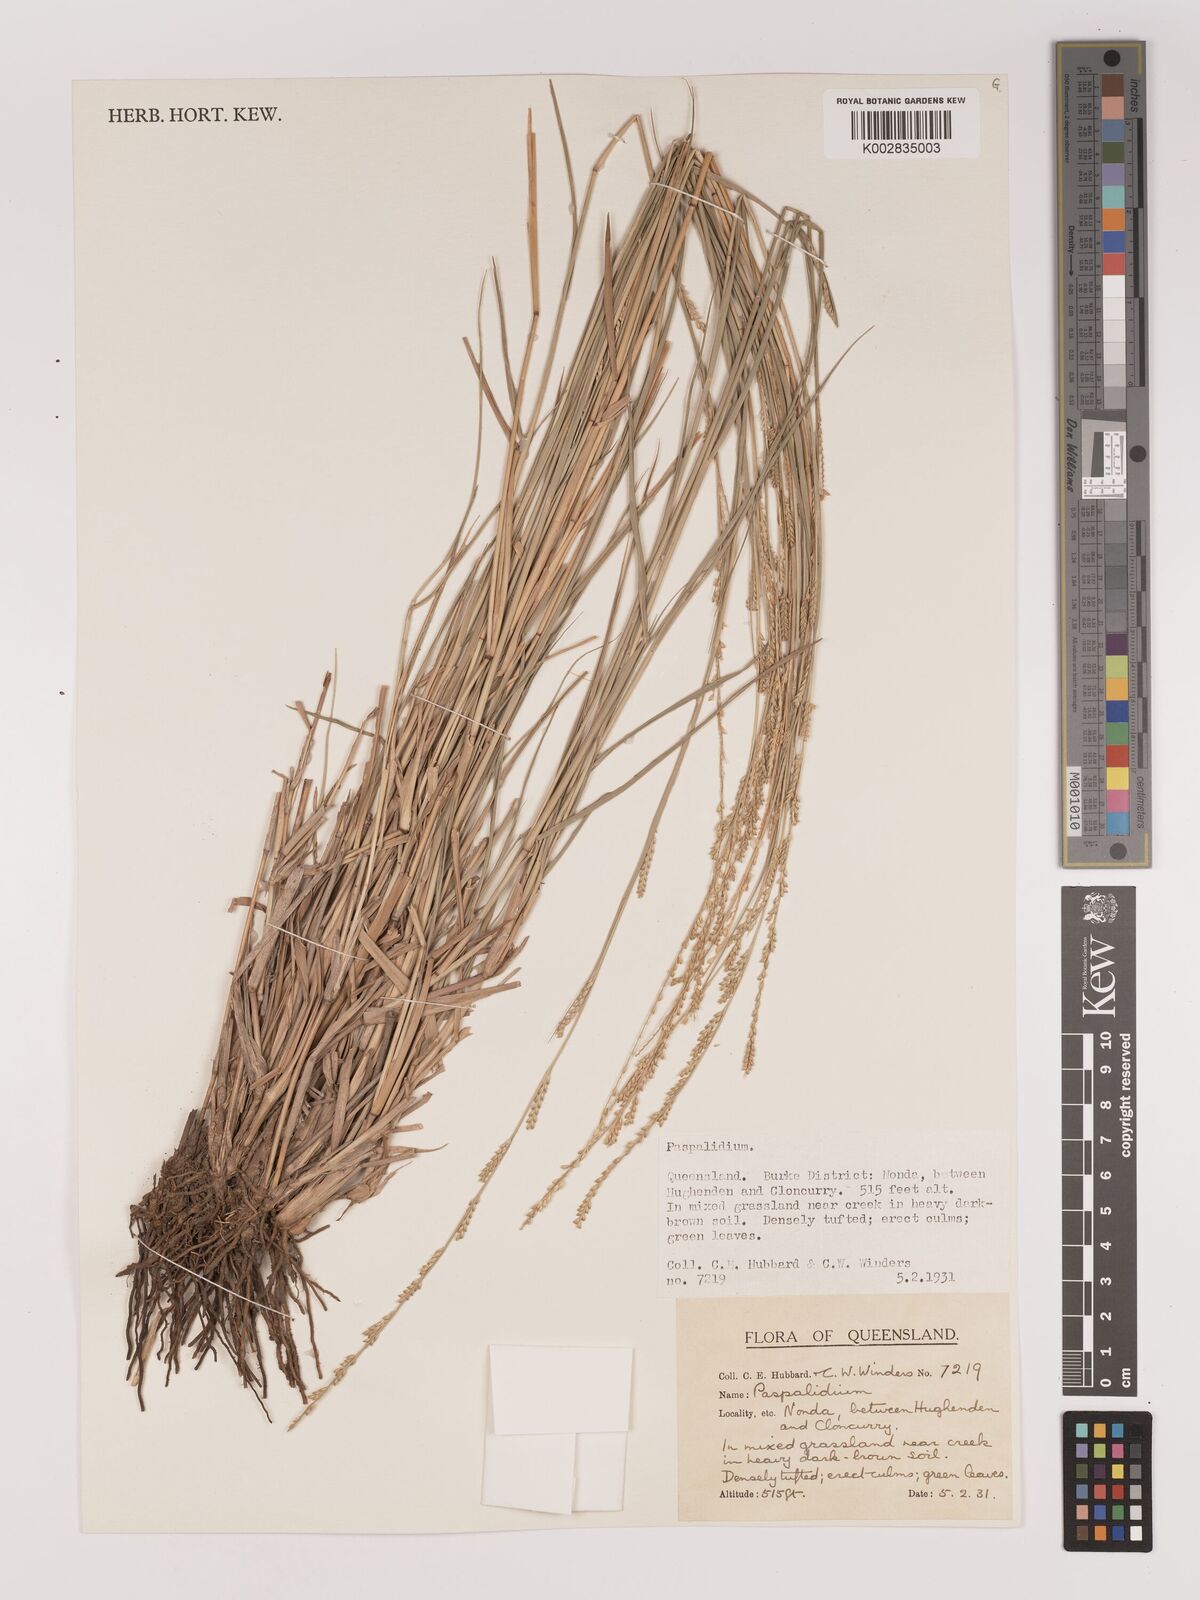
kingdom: Plantae
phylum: Tracheophyta
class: Liliopsida
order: Poales
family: Poaceae
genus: Setaria
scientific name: Setaria
